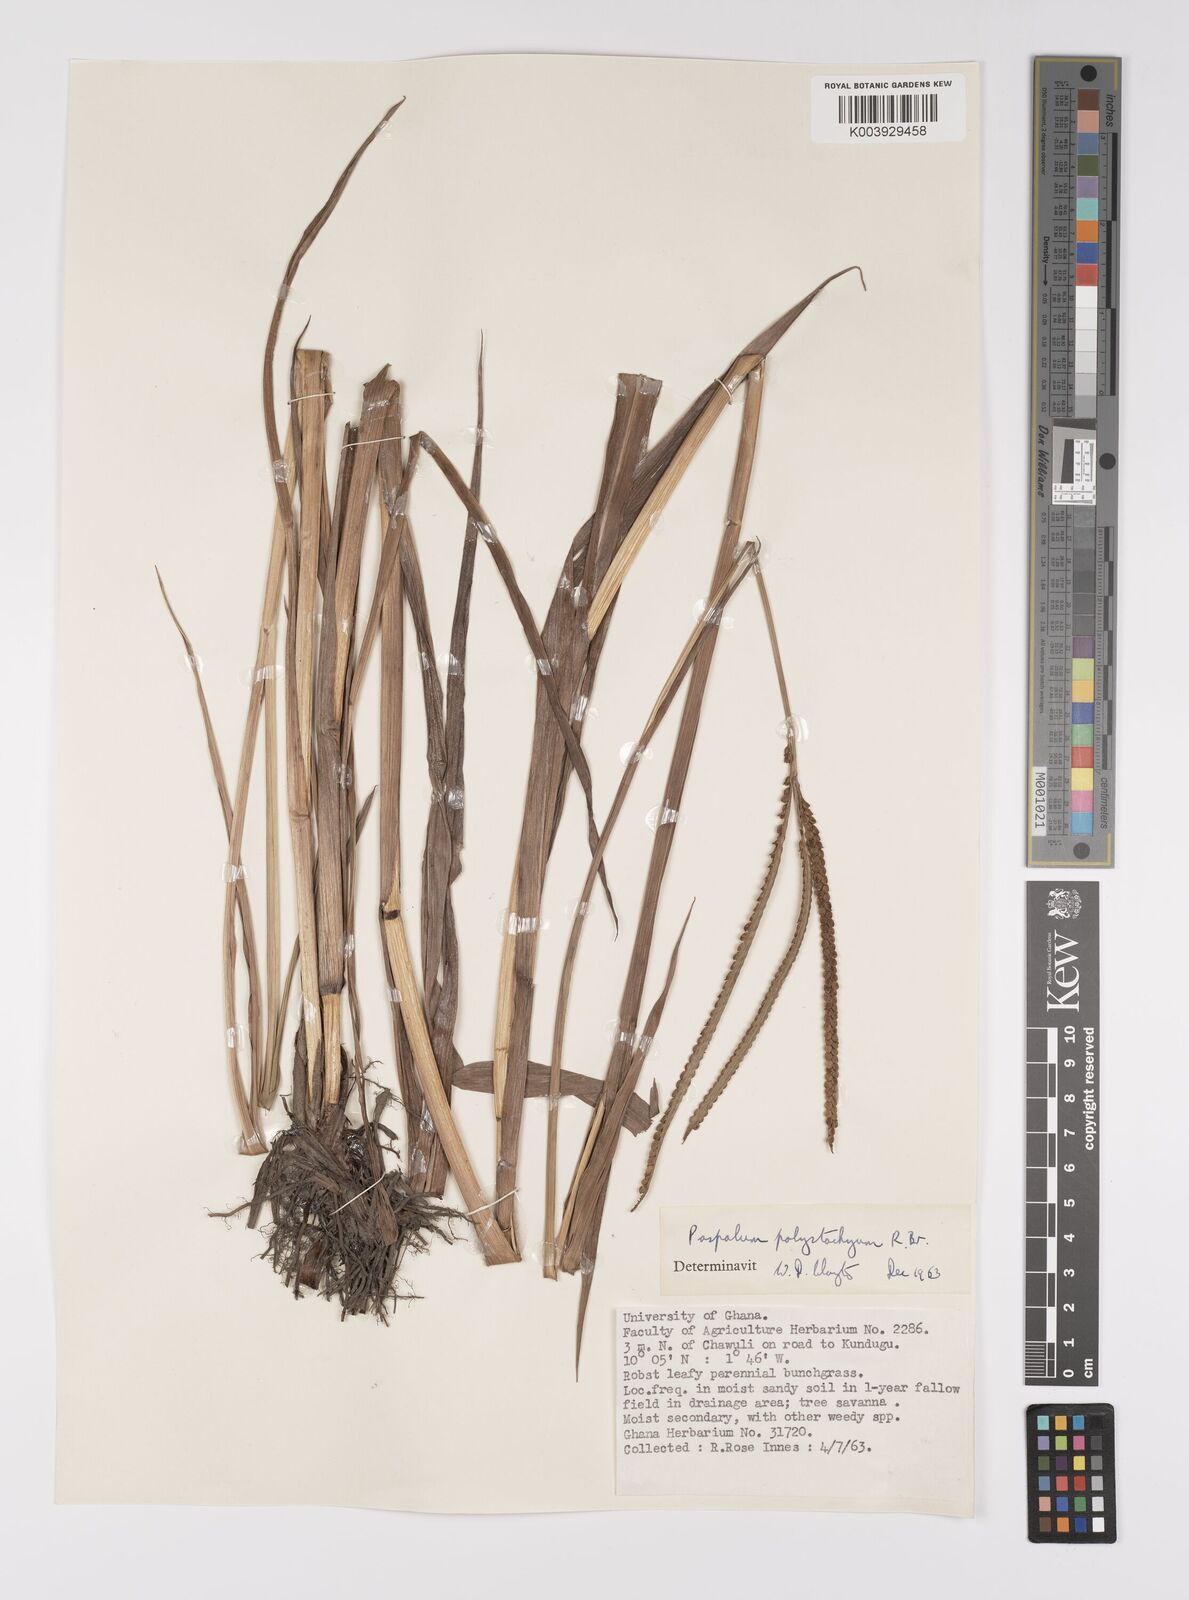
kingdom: Plantae
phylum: Tracheophyta
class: Liliopsida
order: Poales
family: Poaceae
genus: Paspalum
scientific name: Paspalum scrobiculatum
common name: Kodo millet
